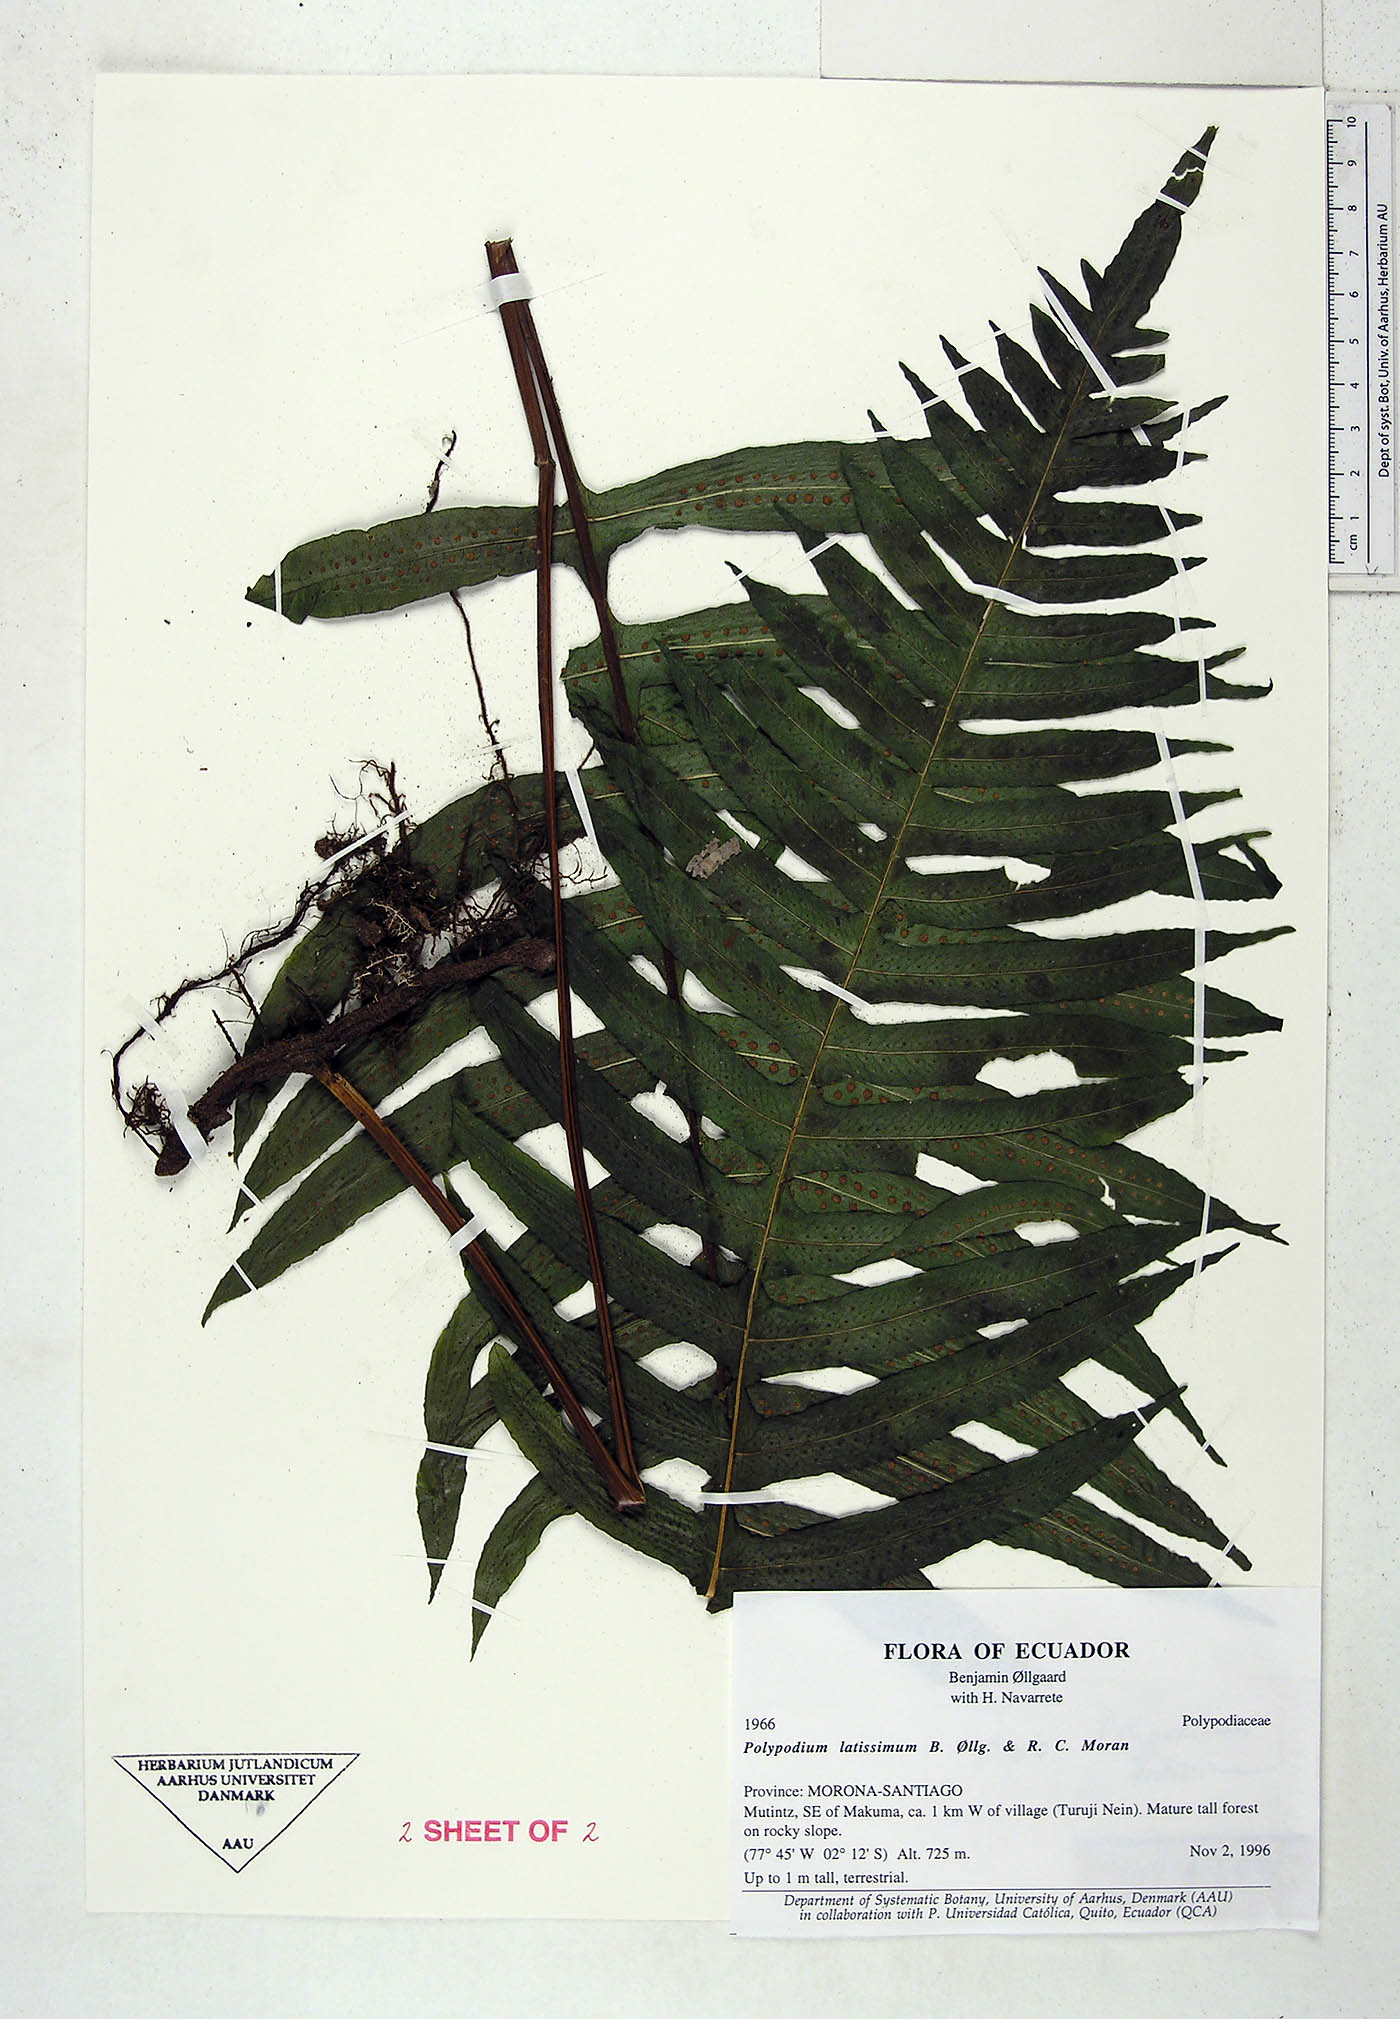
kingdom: Plantae
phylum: Tracheophyta
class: Polypodiopsida
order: Polypodiales
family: Polypodiaceae
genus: Serpocaulon
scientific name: Serpocaulon latissimum
